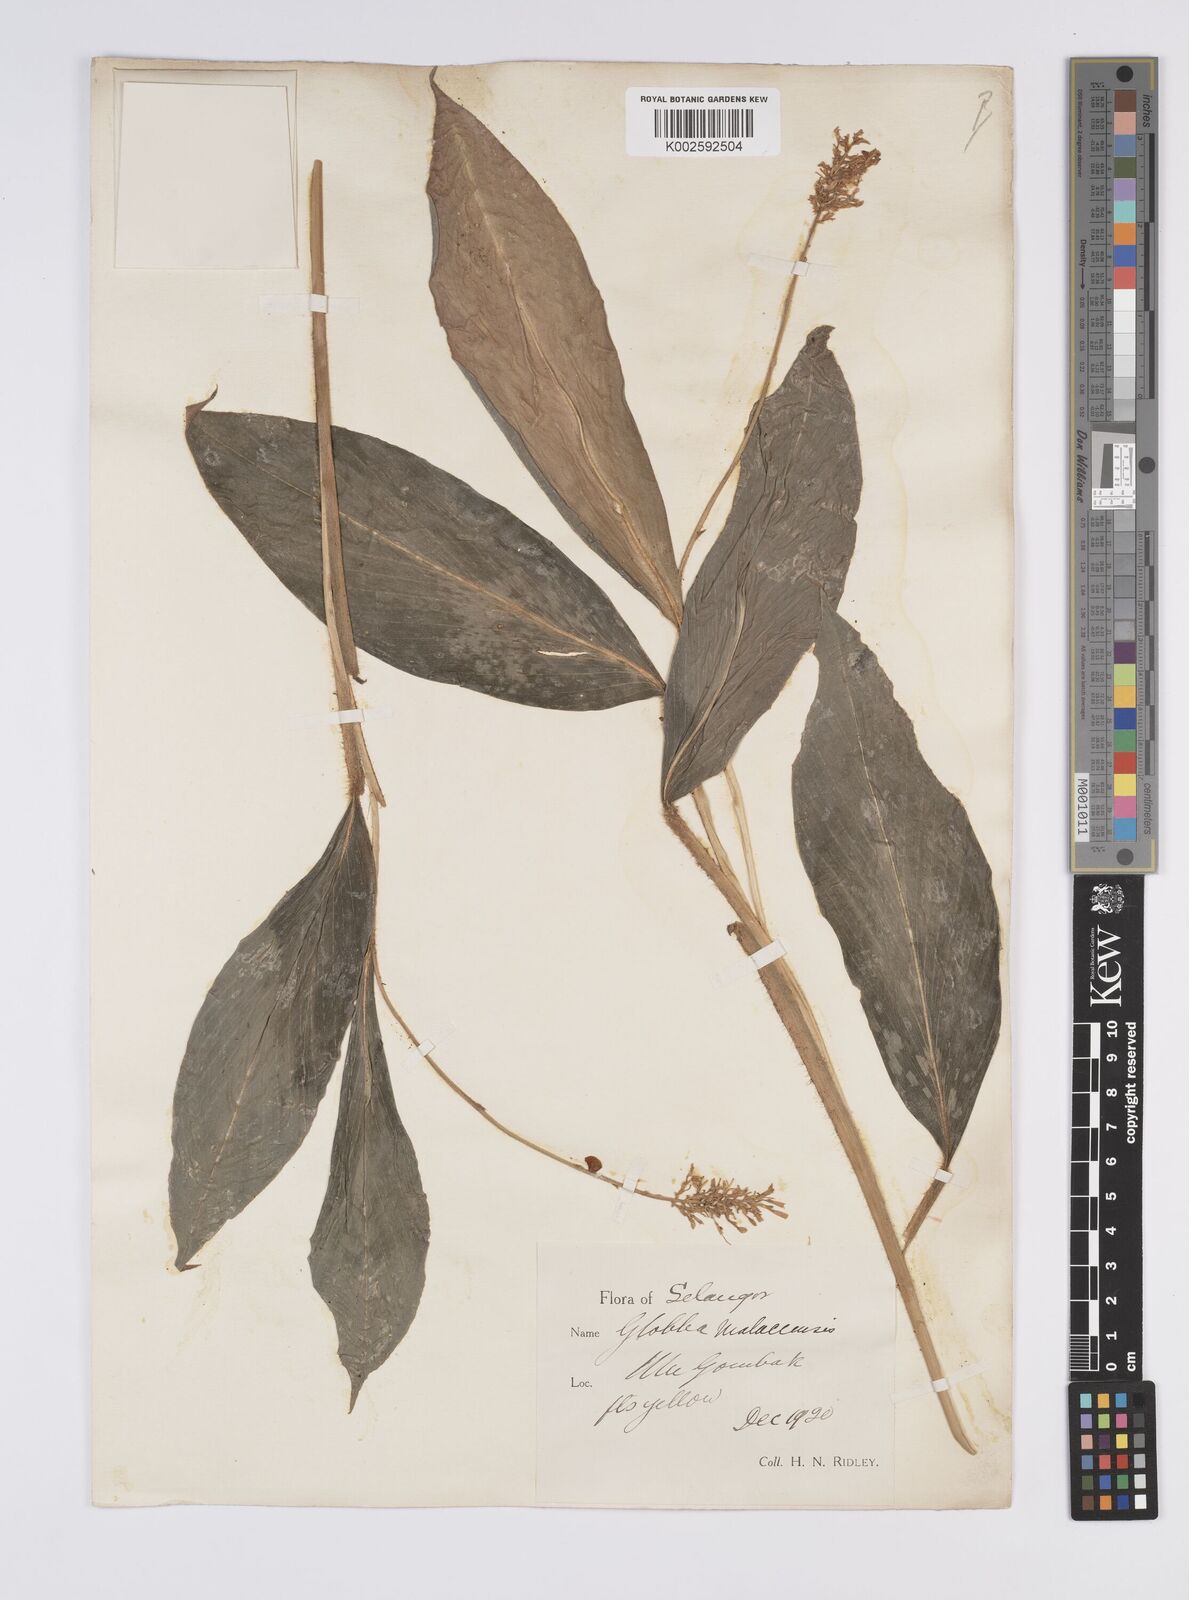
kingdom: Plantae
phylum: Tracheophyta
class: Liliopsida
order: Zingiberales
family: Zingiberaceae
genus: Globba
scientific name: Globba aurantiaca
